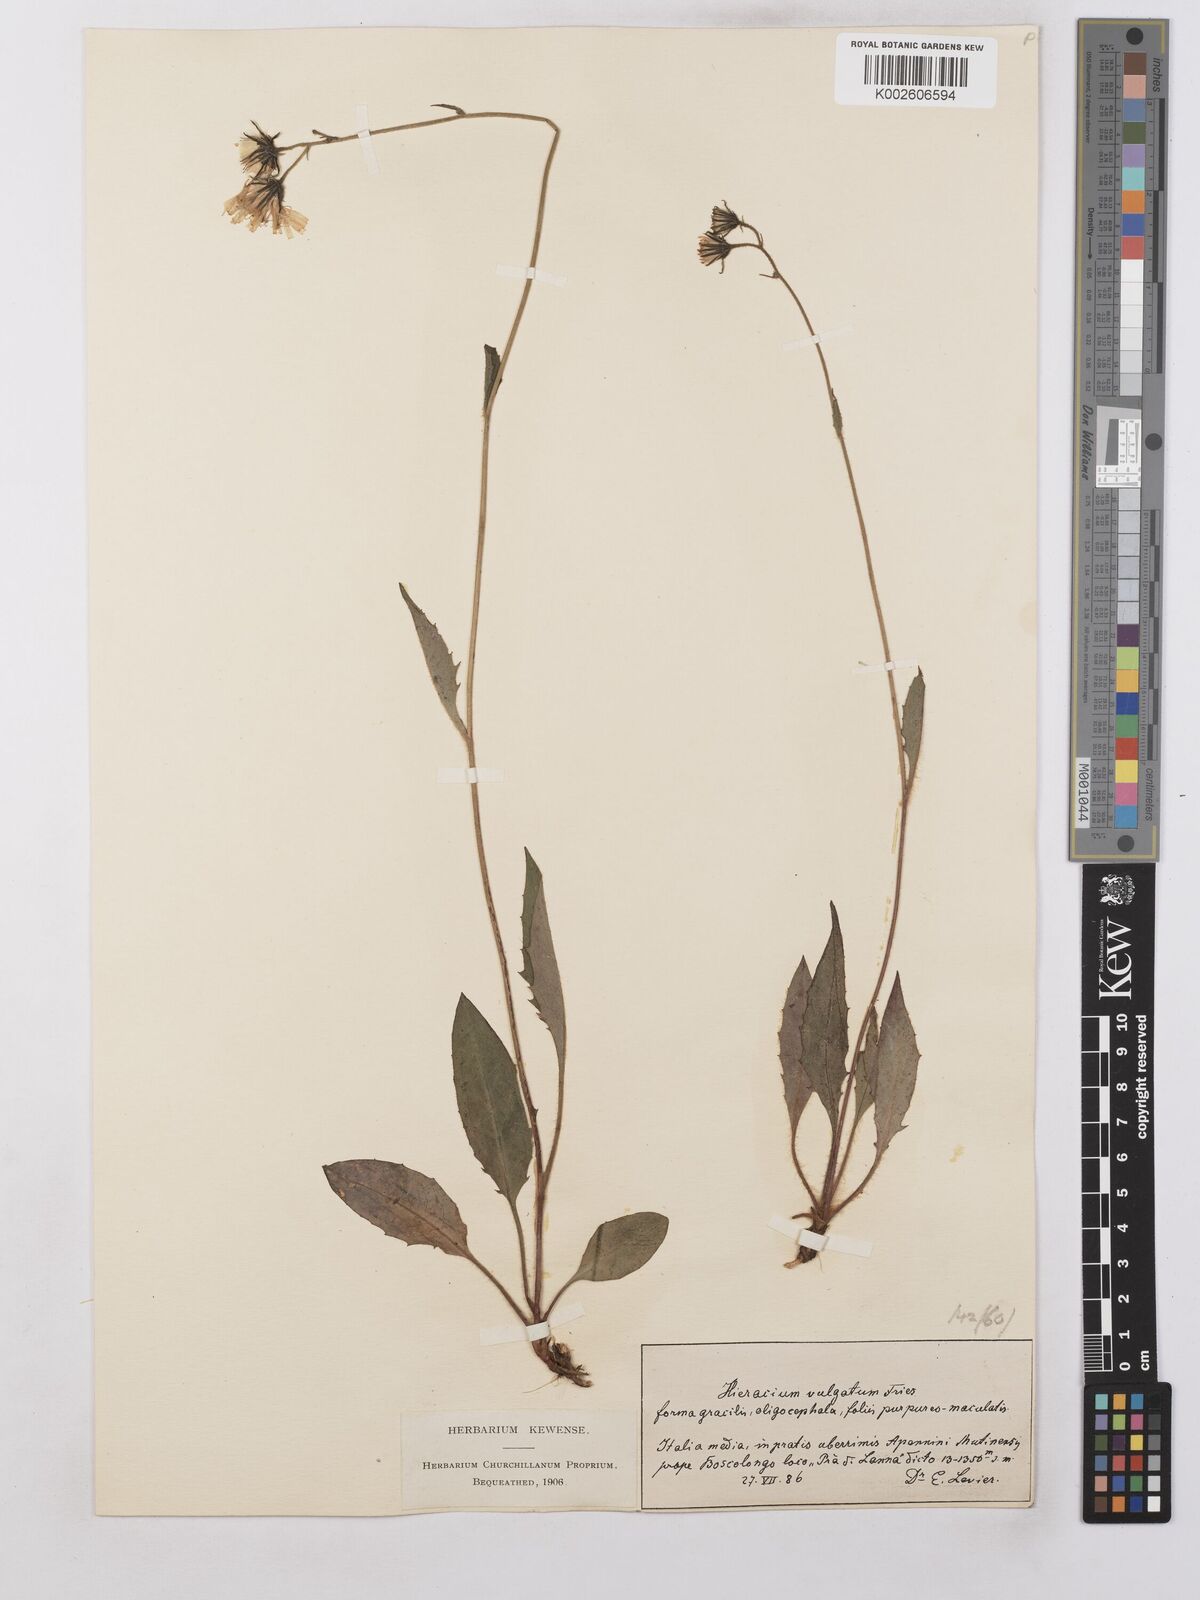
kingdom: Plantae
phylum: Tracheophyta
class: Magnoliopsida
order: Asterales
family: Asteraceae
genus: Hieracium
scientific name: Hieracium lachenalii
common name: Common hawkweed
